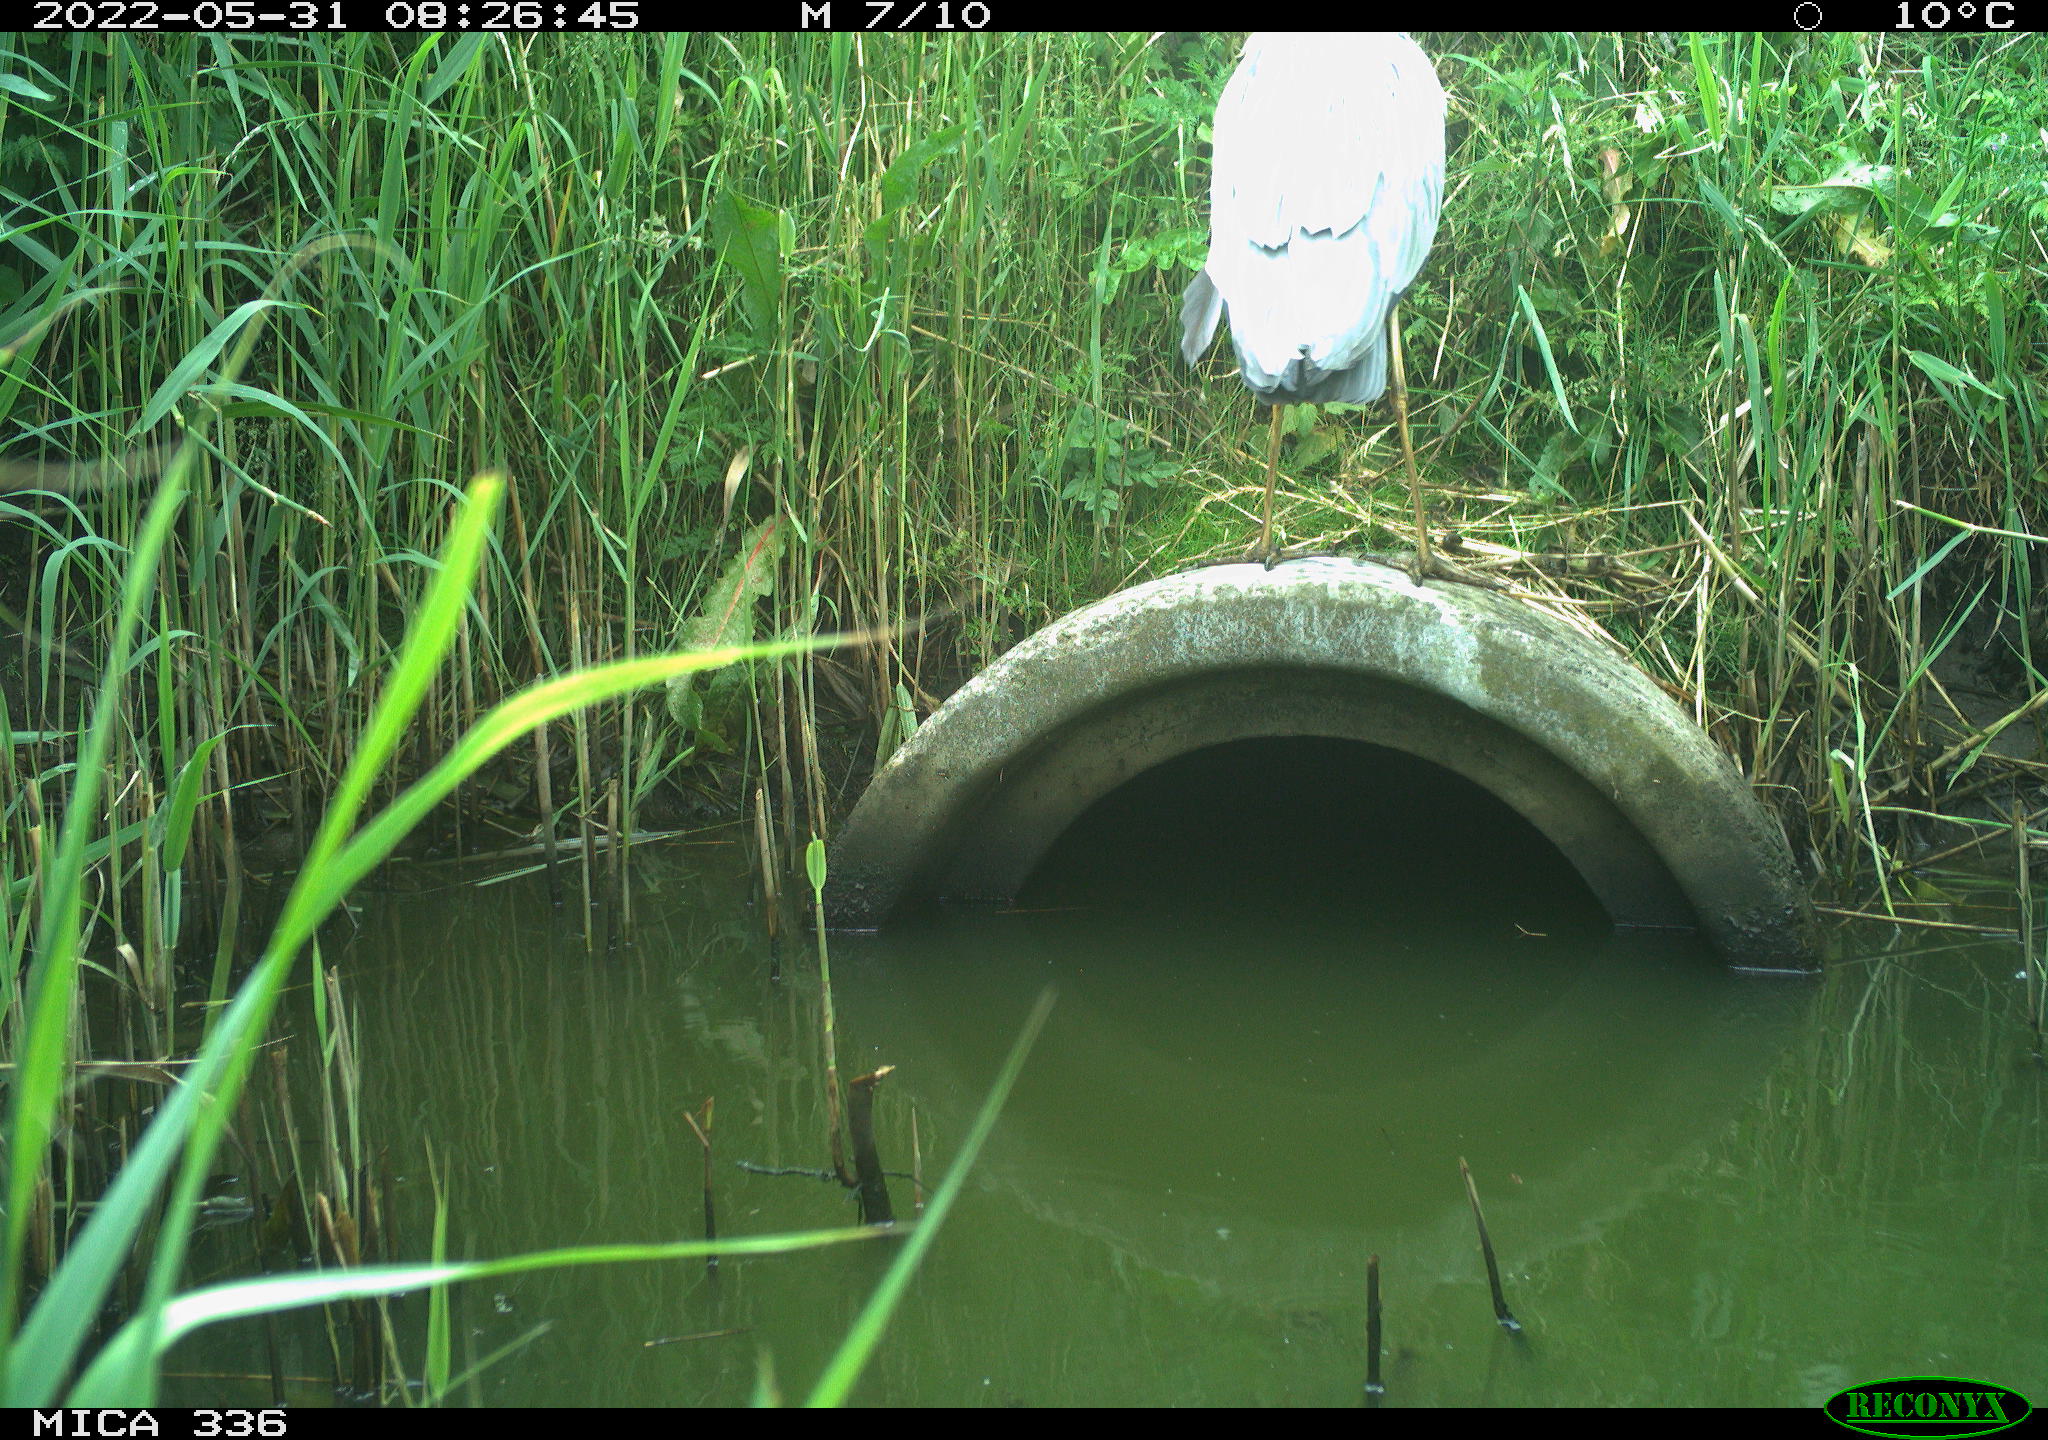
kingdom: Animalia
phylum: Chordata
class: Aves
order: Pelecaniformes
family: Ardeidae
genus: Ardea
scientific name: Ardea
